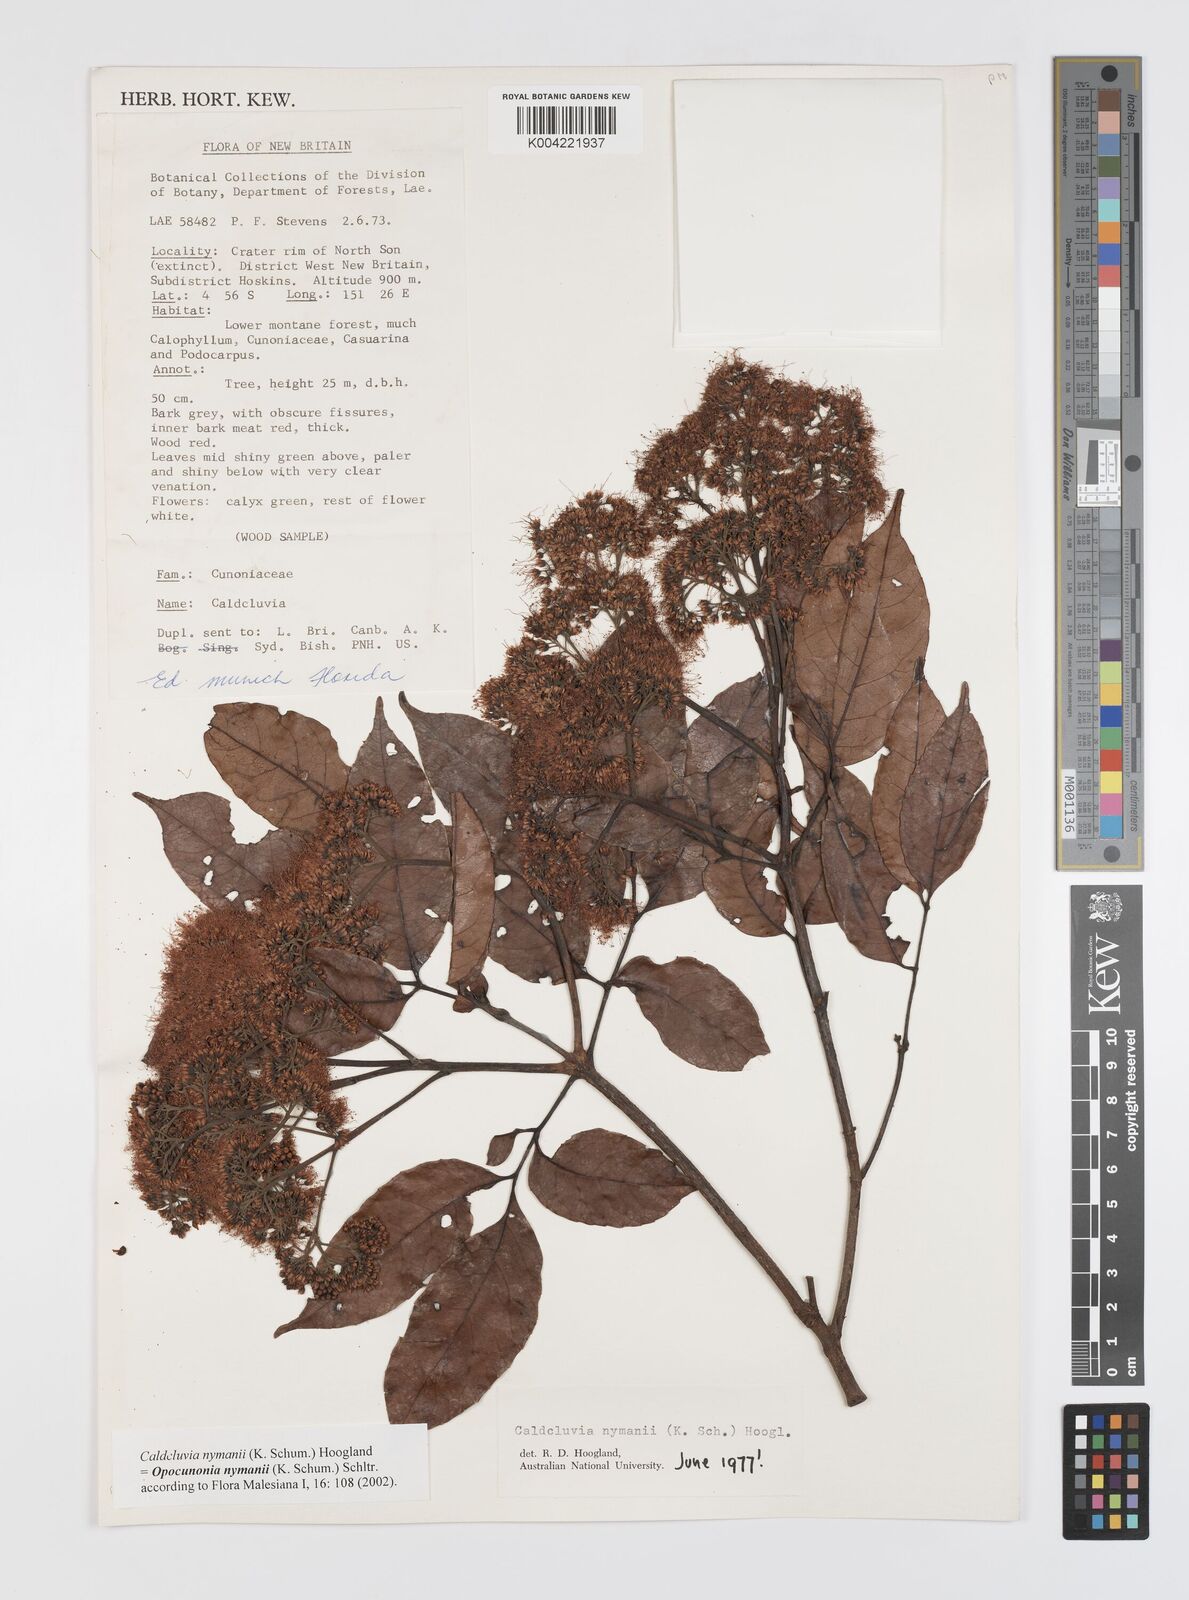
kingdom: Plantae
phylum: Tracheophyta
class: Magnoliopsida
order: Oxalidales
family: Cunoniaceae
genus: Opocunonia
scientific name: Opocunonia nymanii
